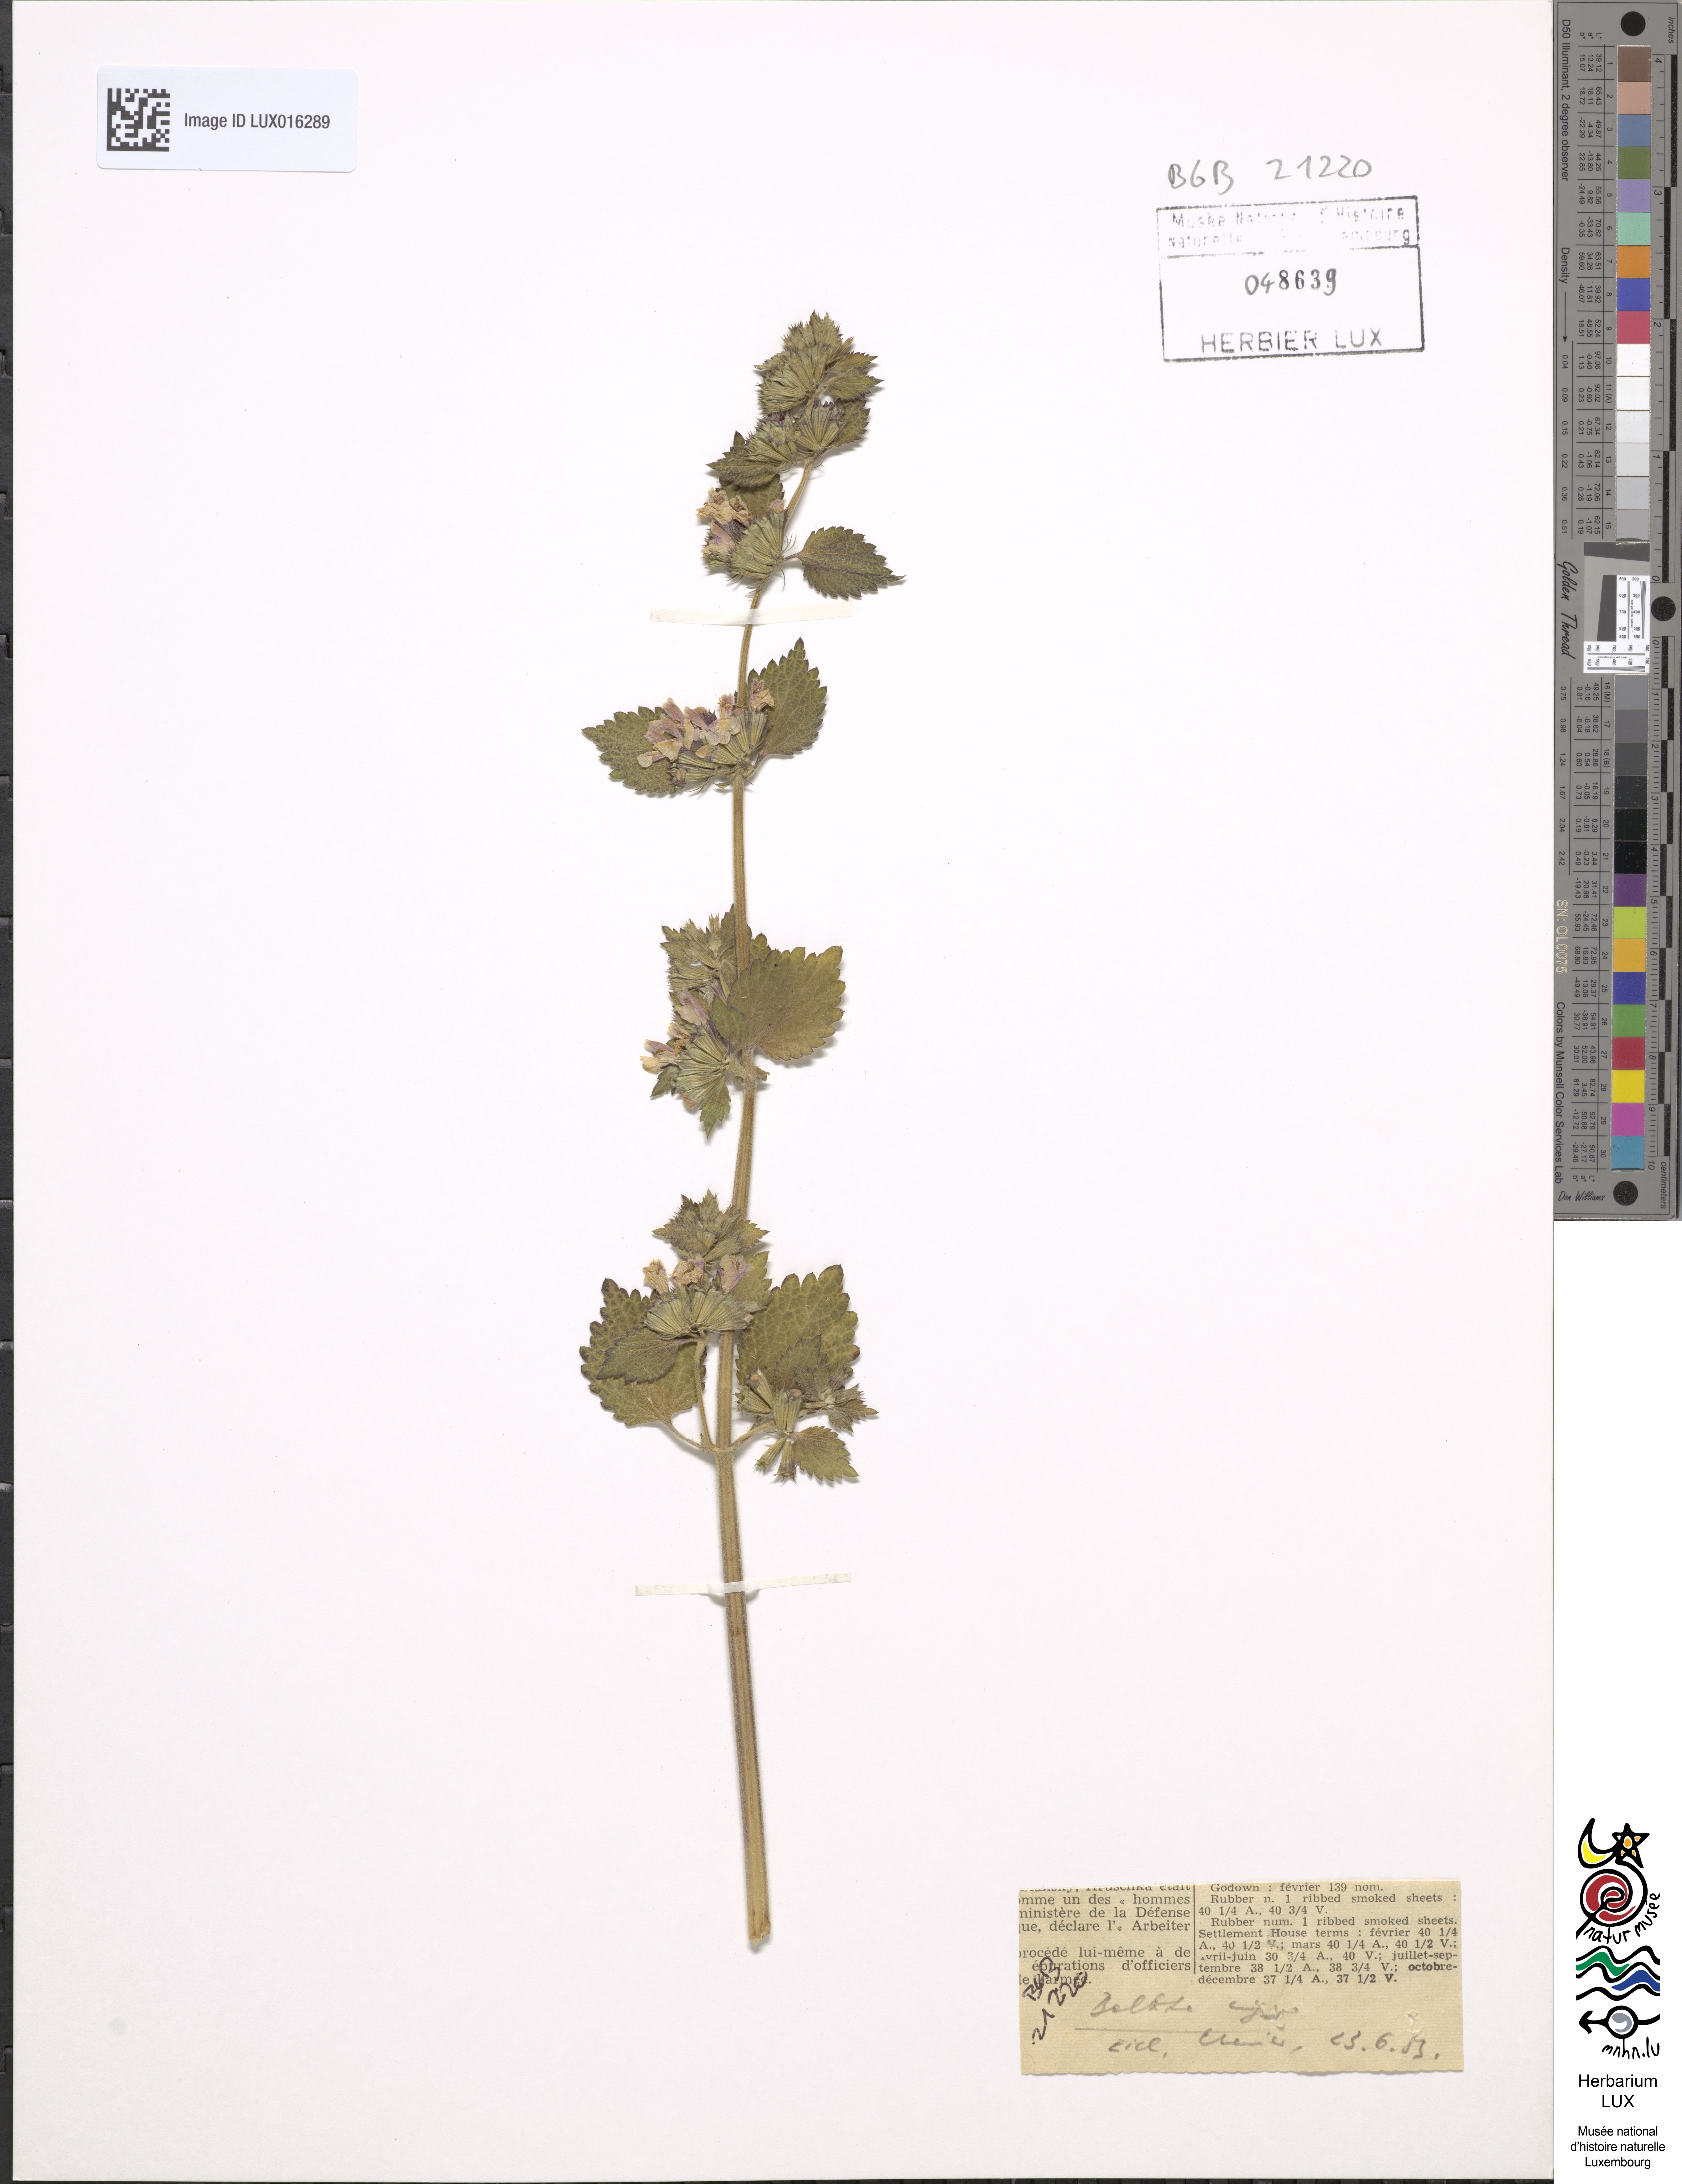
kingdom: Plantae
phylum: Tracheophyta
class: Magnoliopsida
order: Lamiales
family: Lamiaceae
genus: Ballota
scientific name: Ballota nigra
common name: Black horehound
